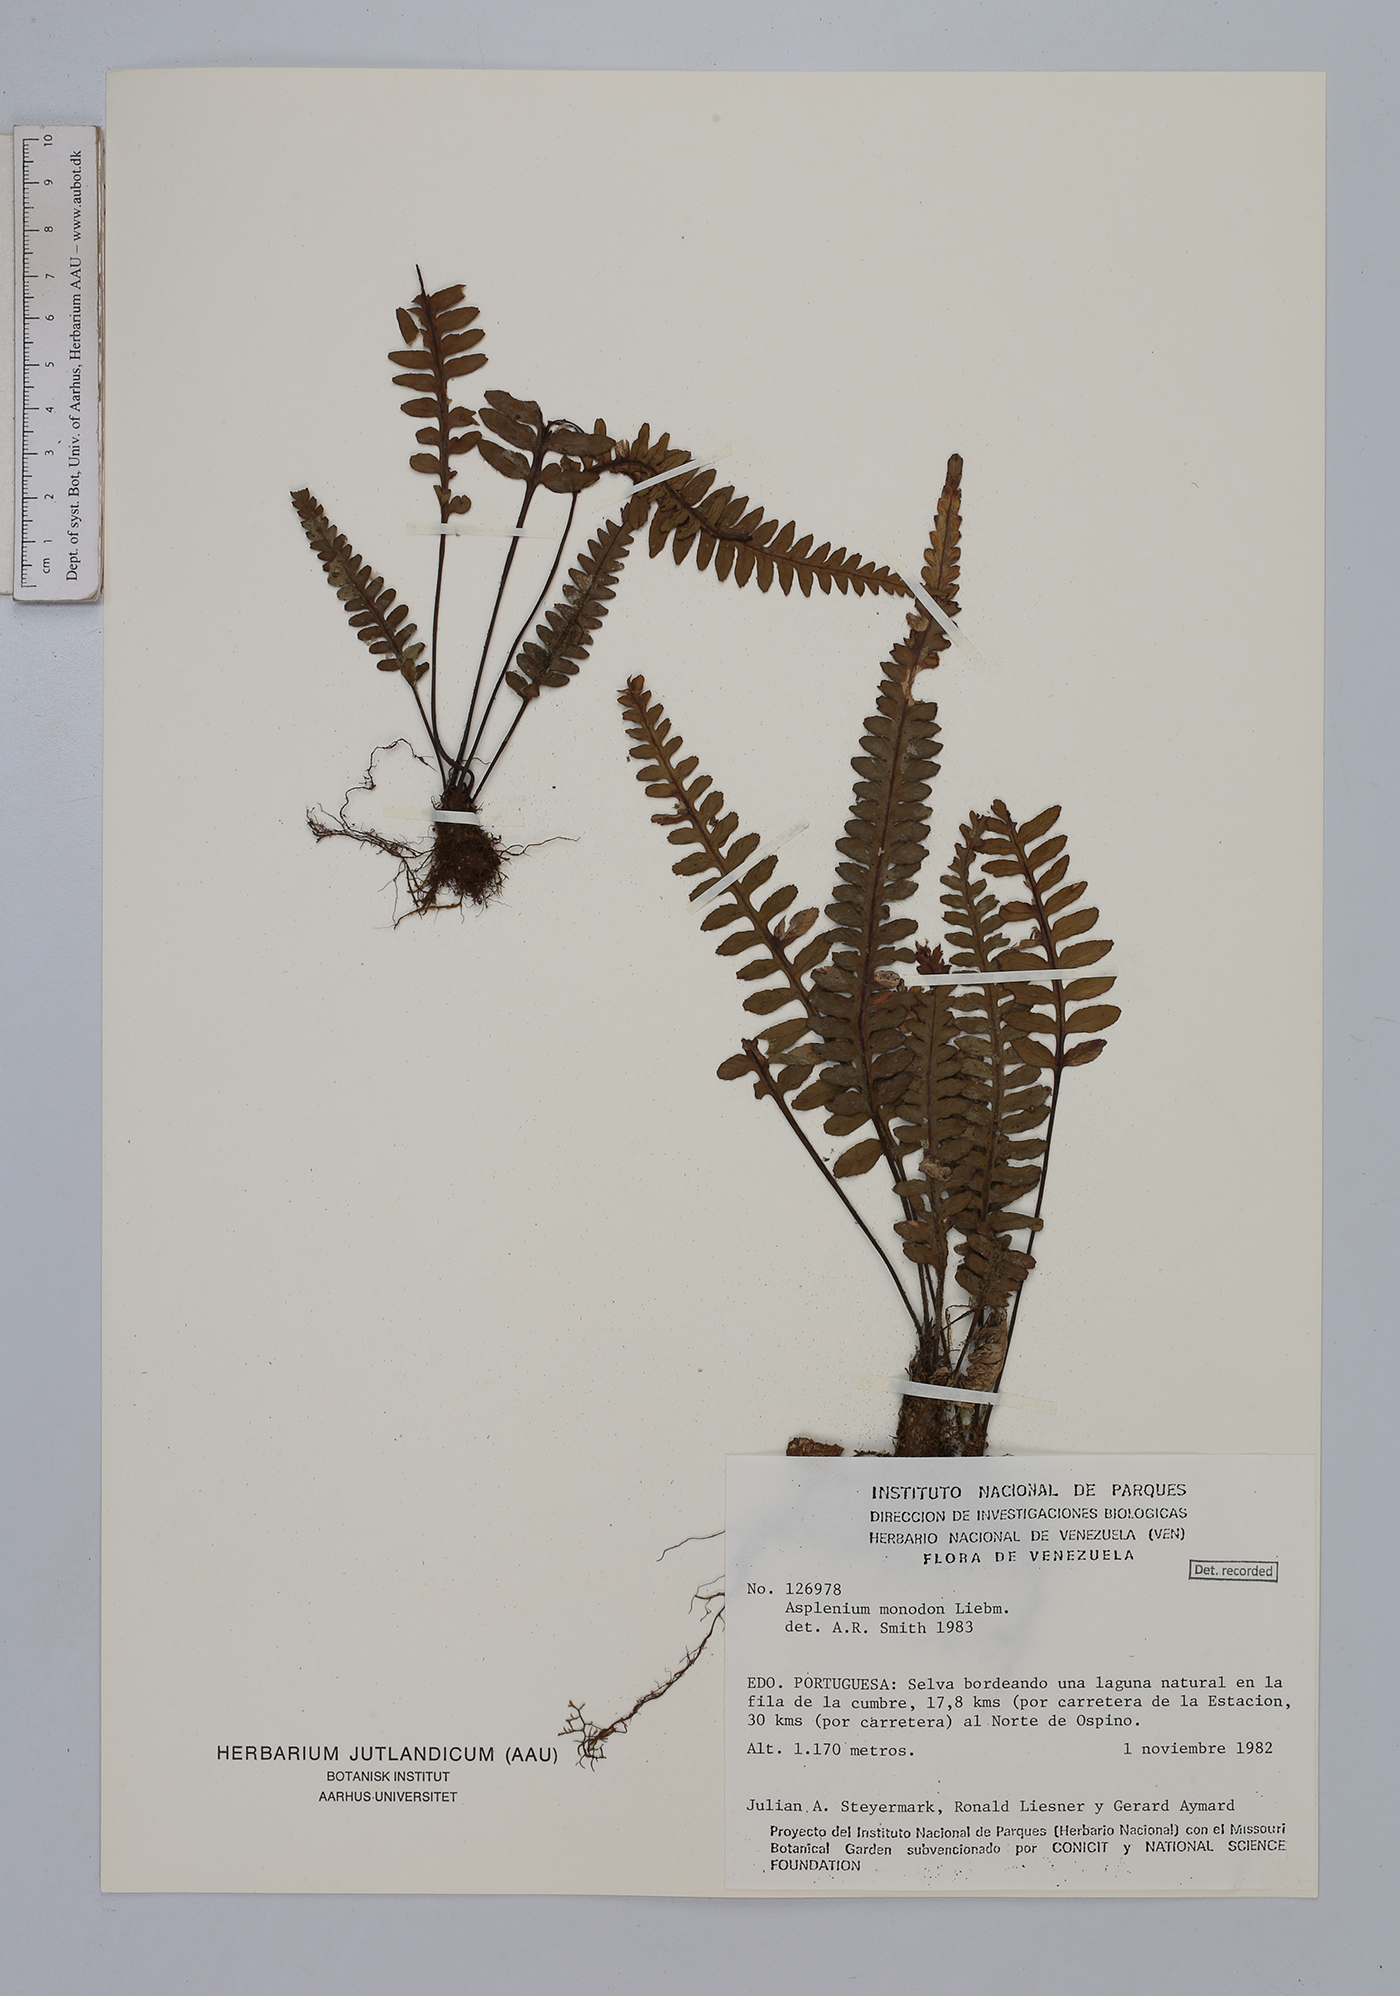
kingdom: Plantae
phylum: Tracheophyta
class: Polypodiopsida
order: Polypodiales
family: Aspleniaceae
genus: Asplenium
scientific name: Asplenium monodon
